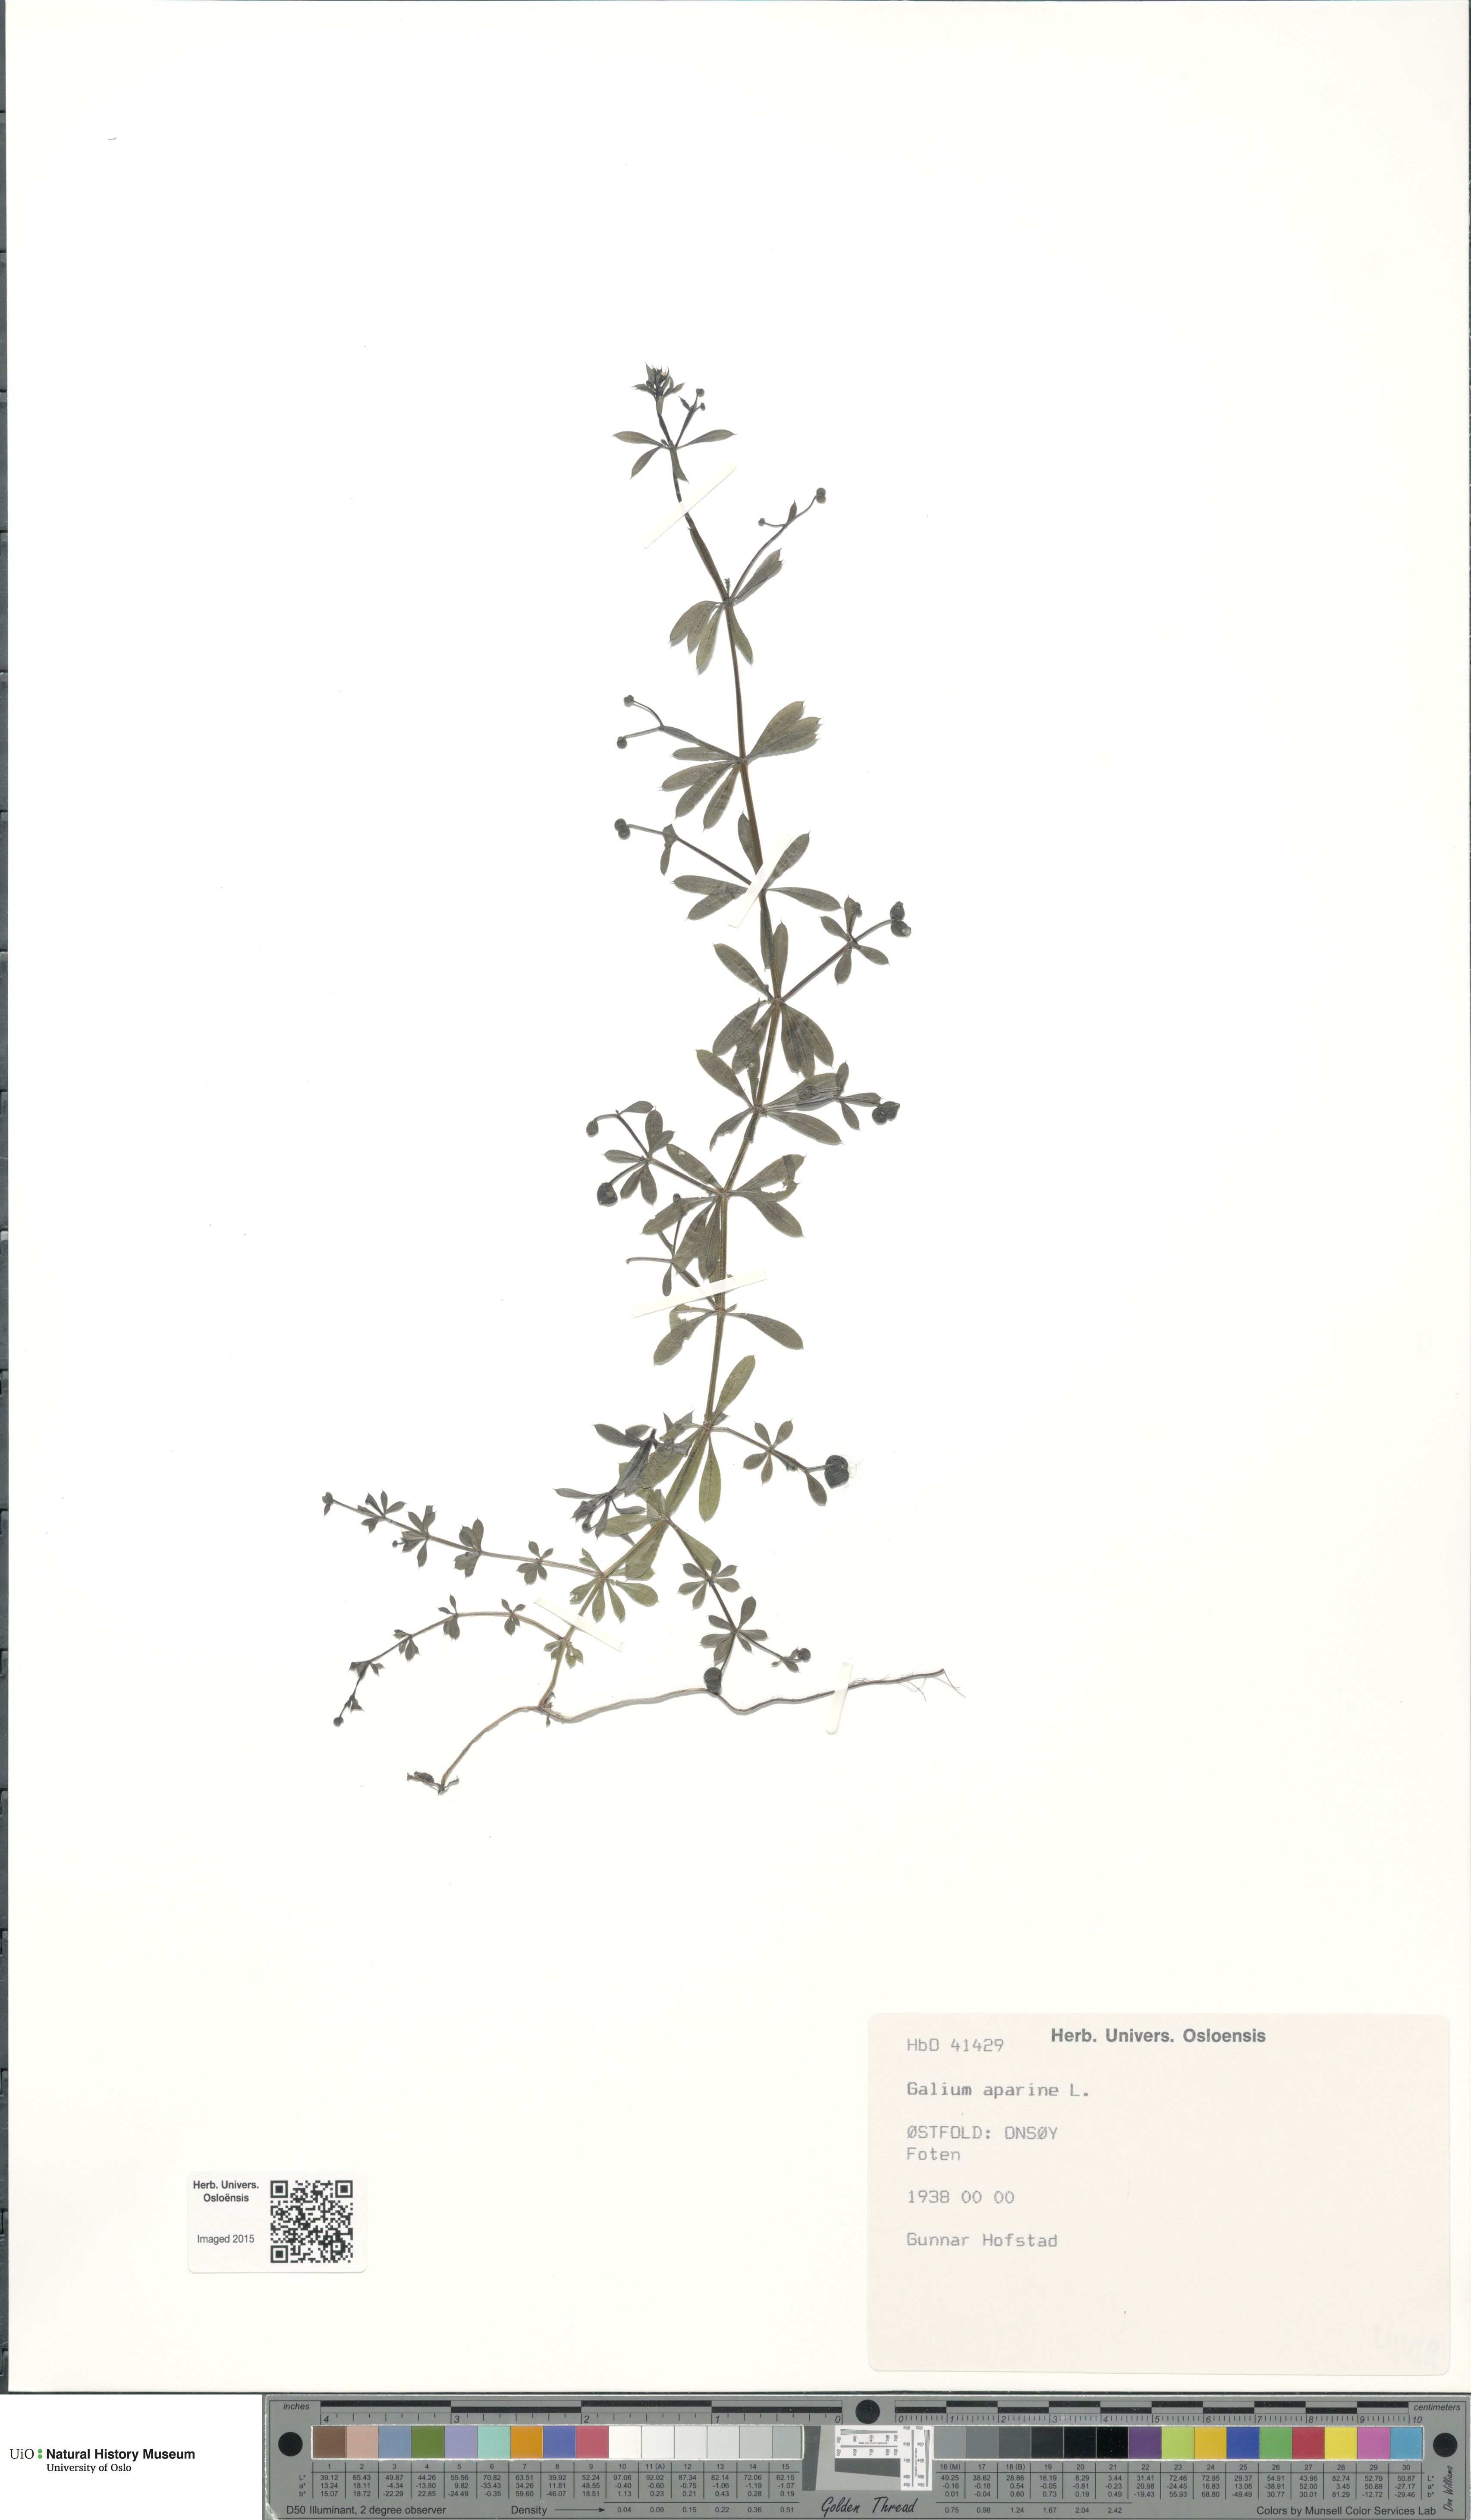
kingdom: Plantae
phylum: Tracheophyta
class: Magnoliopsida
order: Gentianales
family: Rubiaceae
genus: Galium
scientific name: Galium aparine
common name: Cleavers
